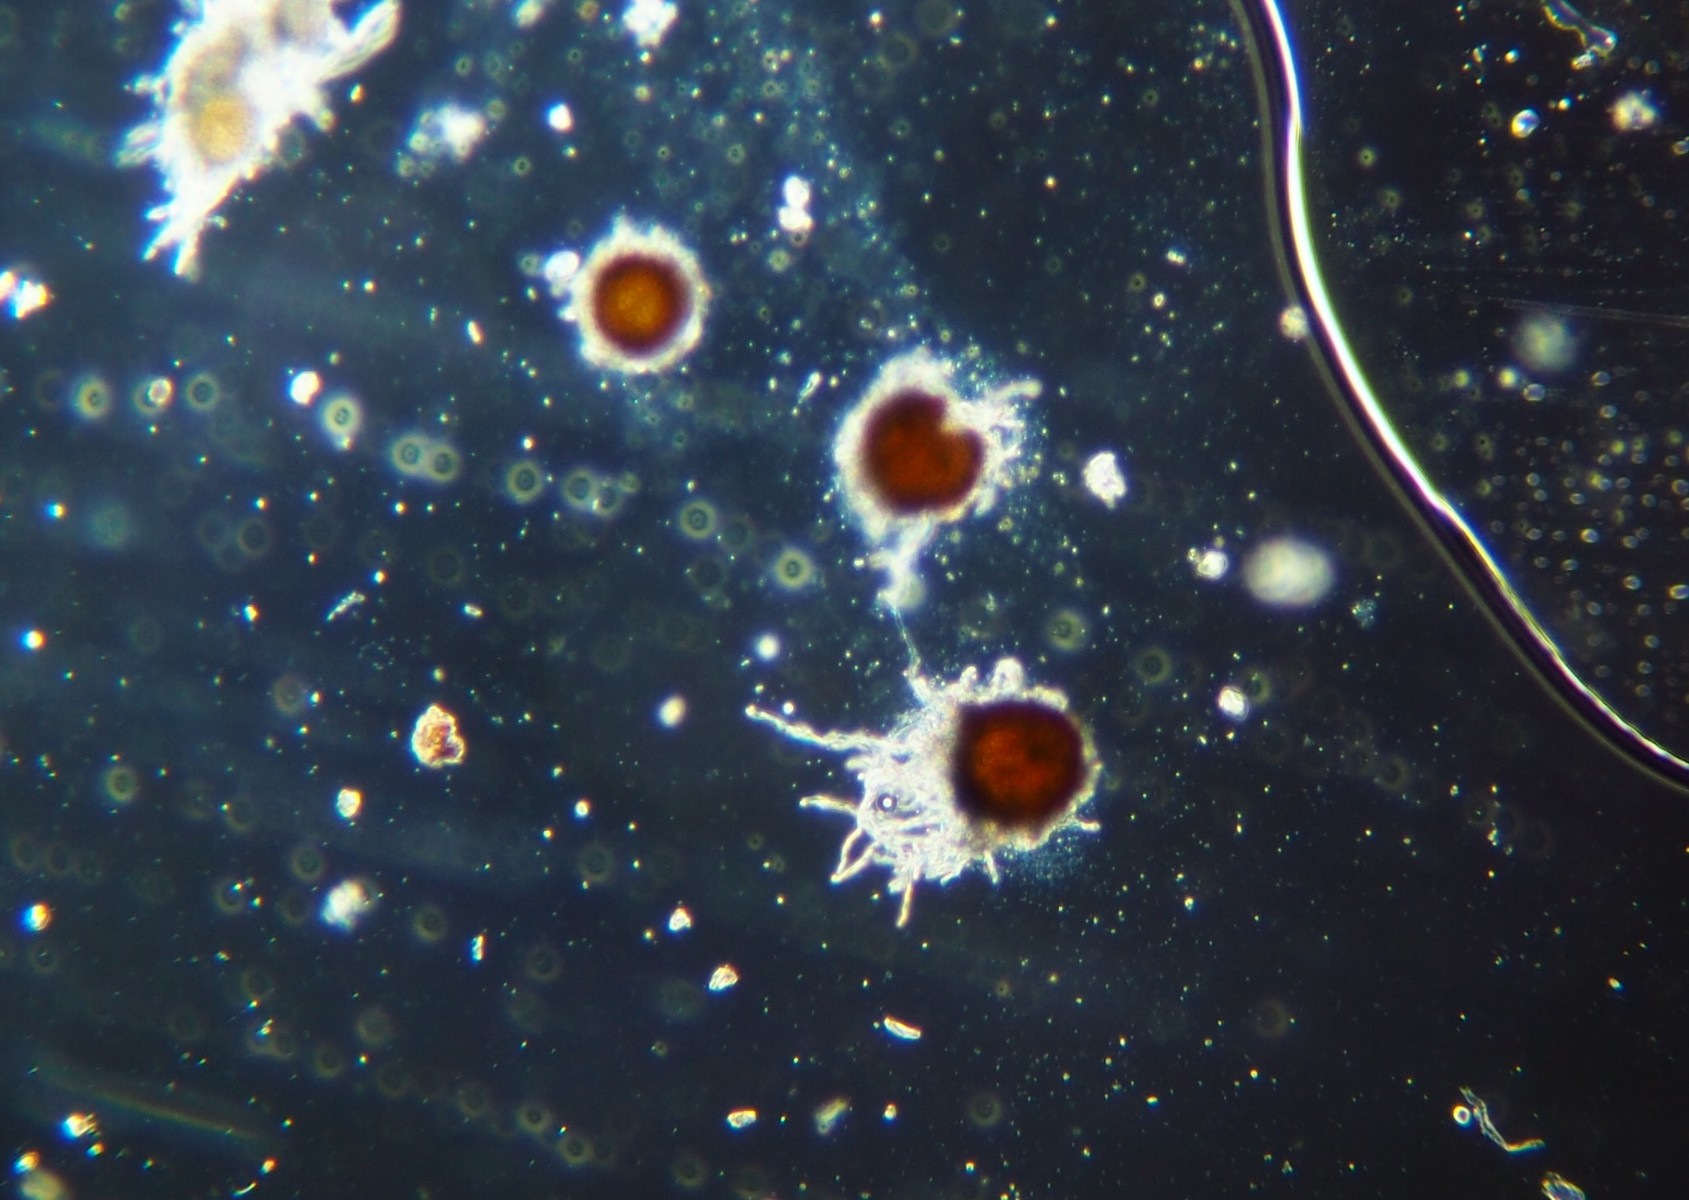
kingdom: Fungi
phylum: Ascomycota
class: Leotiomycetes
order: Helotiales
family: Erysiphaceae
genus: Golovinomyces
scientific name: Golovinomyces biocellatus
